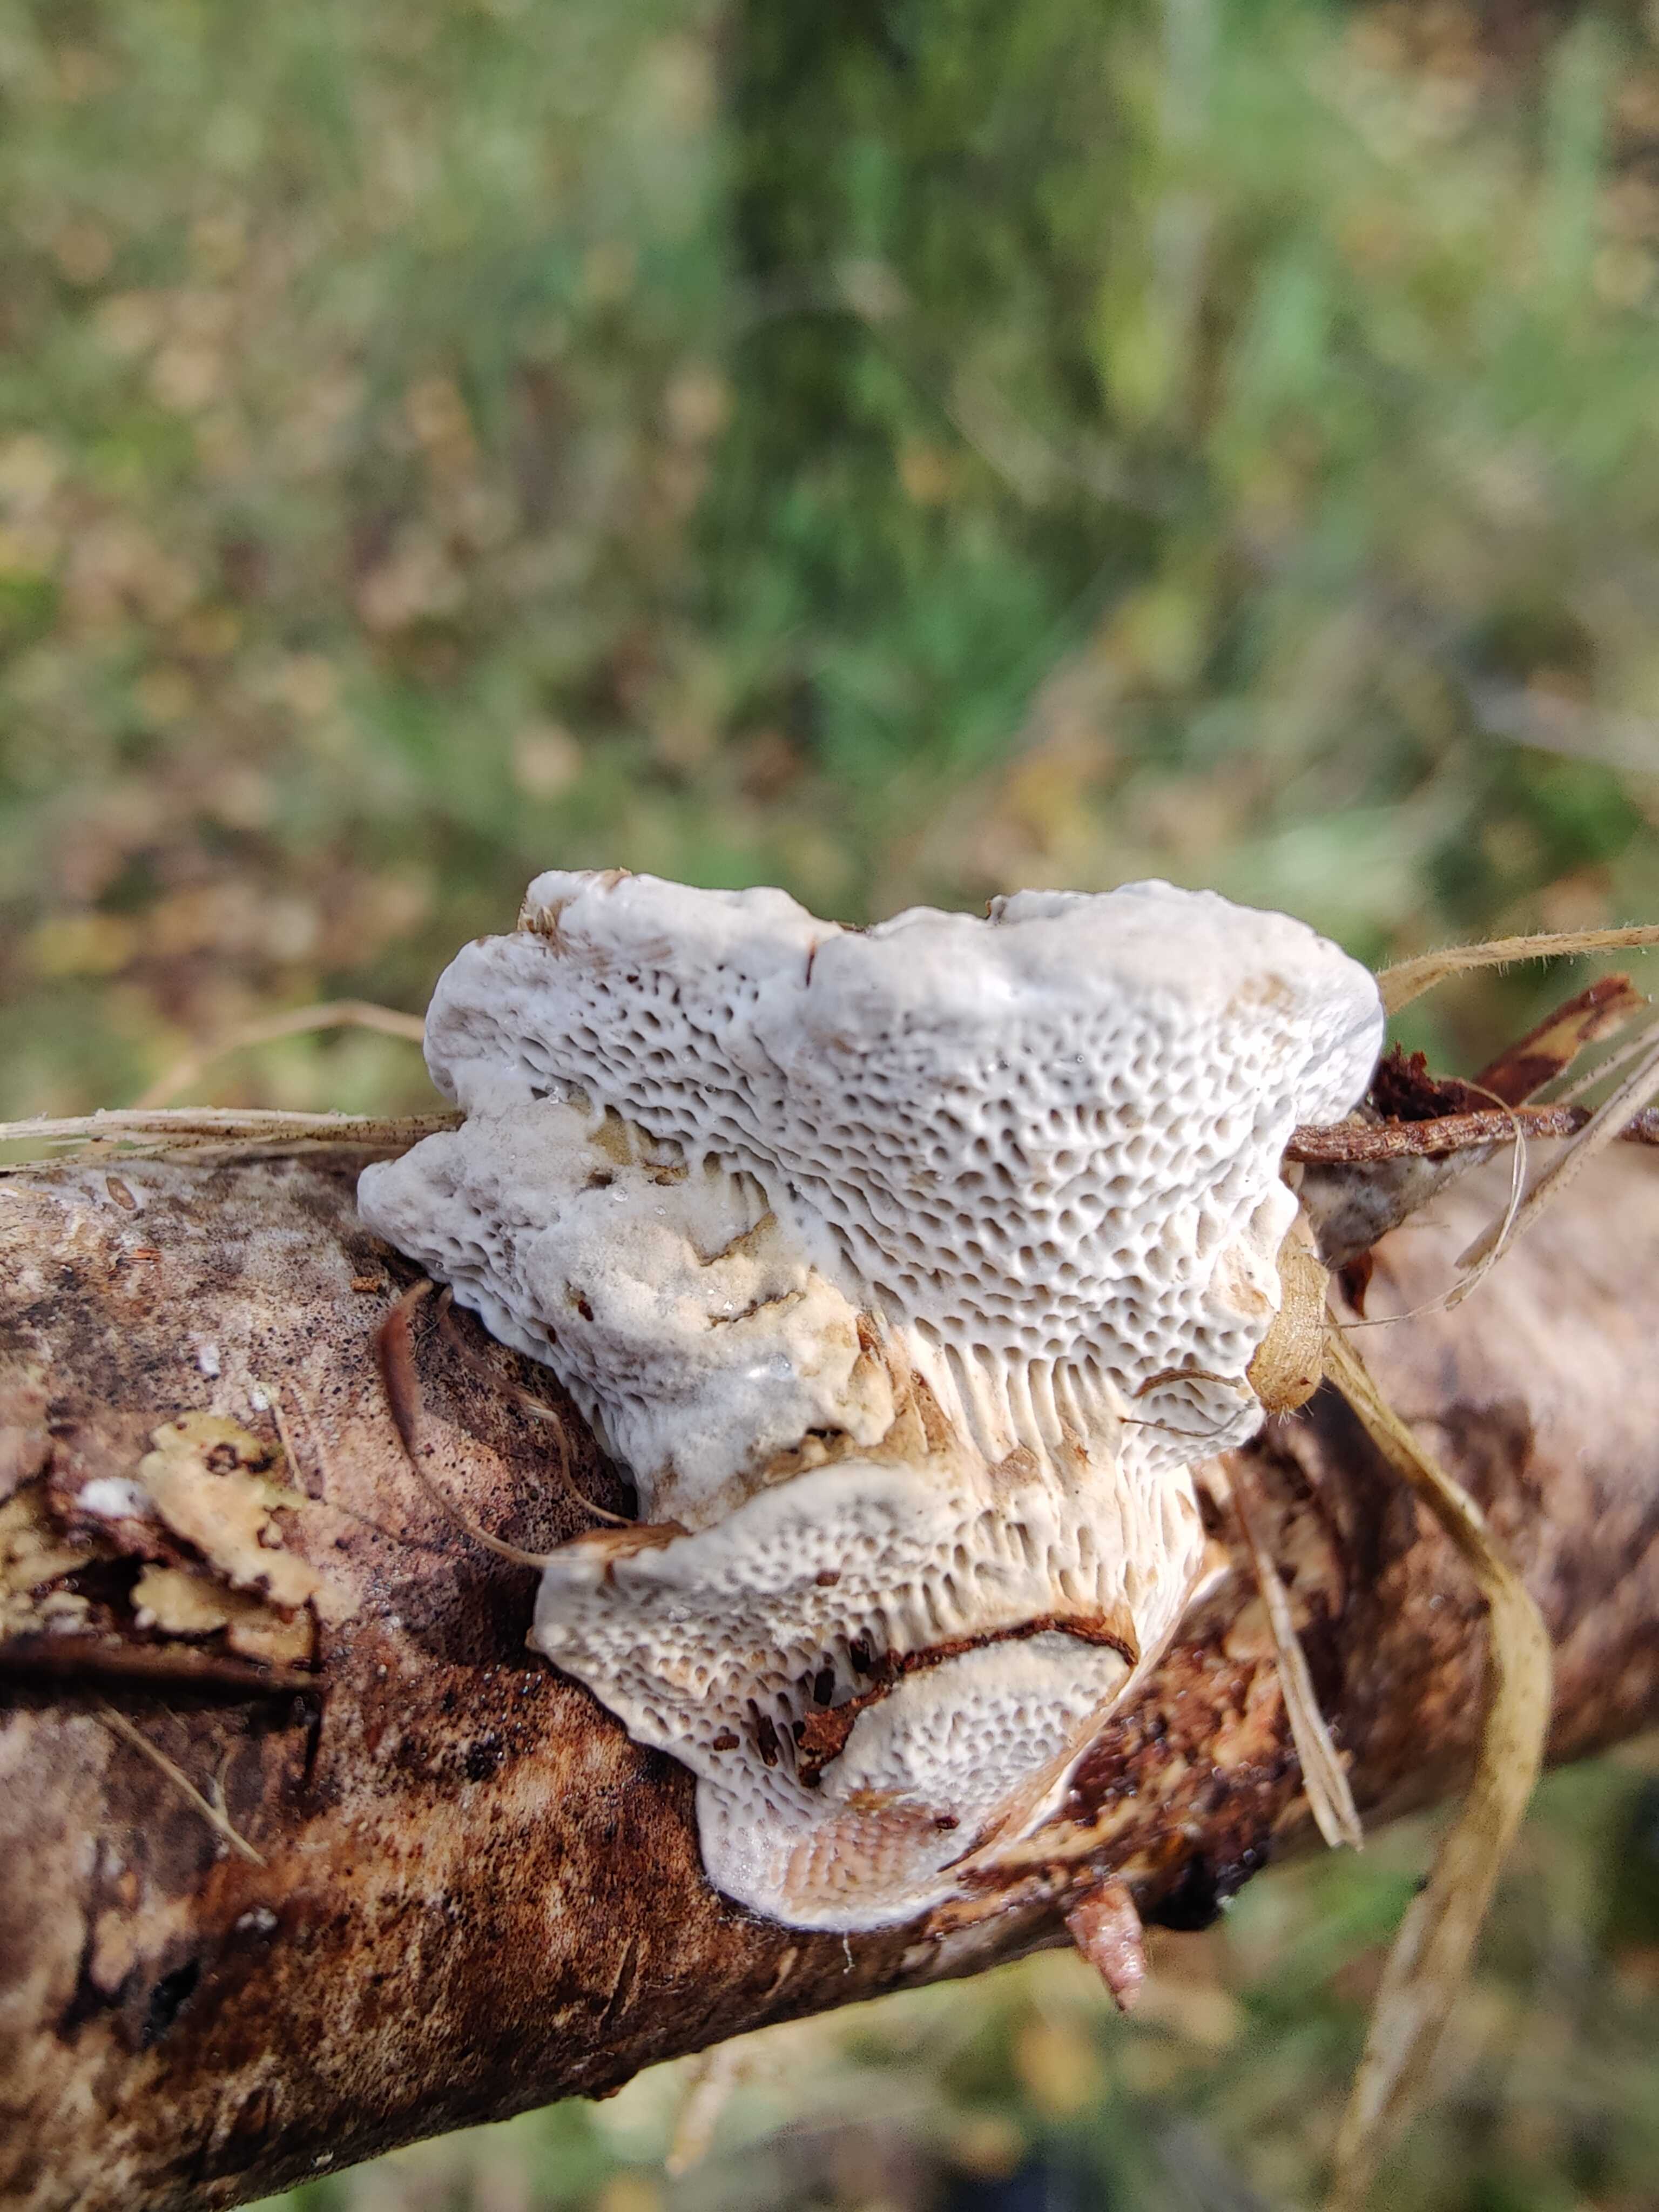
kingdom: Fungi
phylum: Basidiomycota
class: Agaricomycetes
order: Polyporales
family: Polyporaceae
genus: Daedaleopsis
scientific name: Daedaleopsis confragosa
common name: rødmende læderporesvamp
